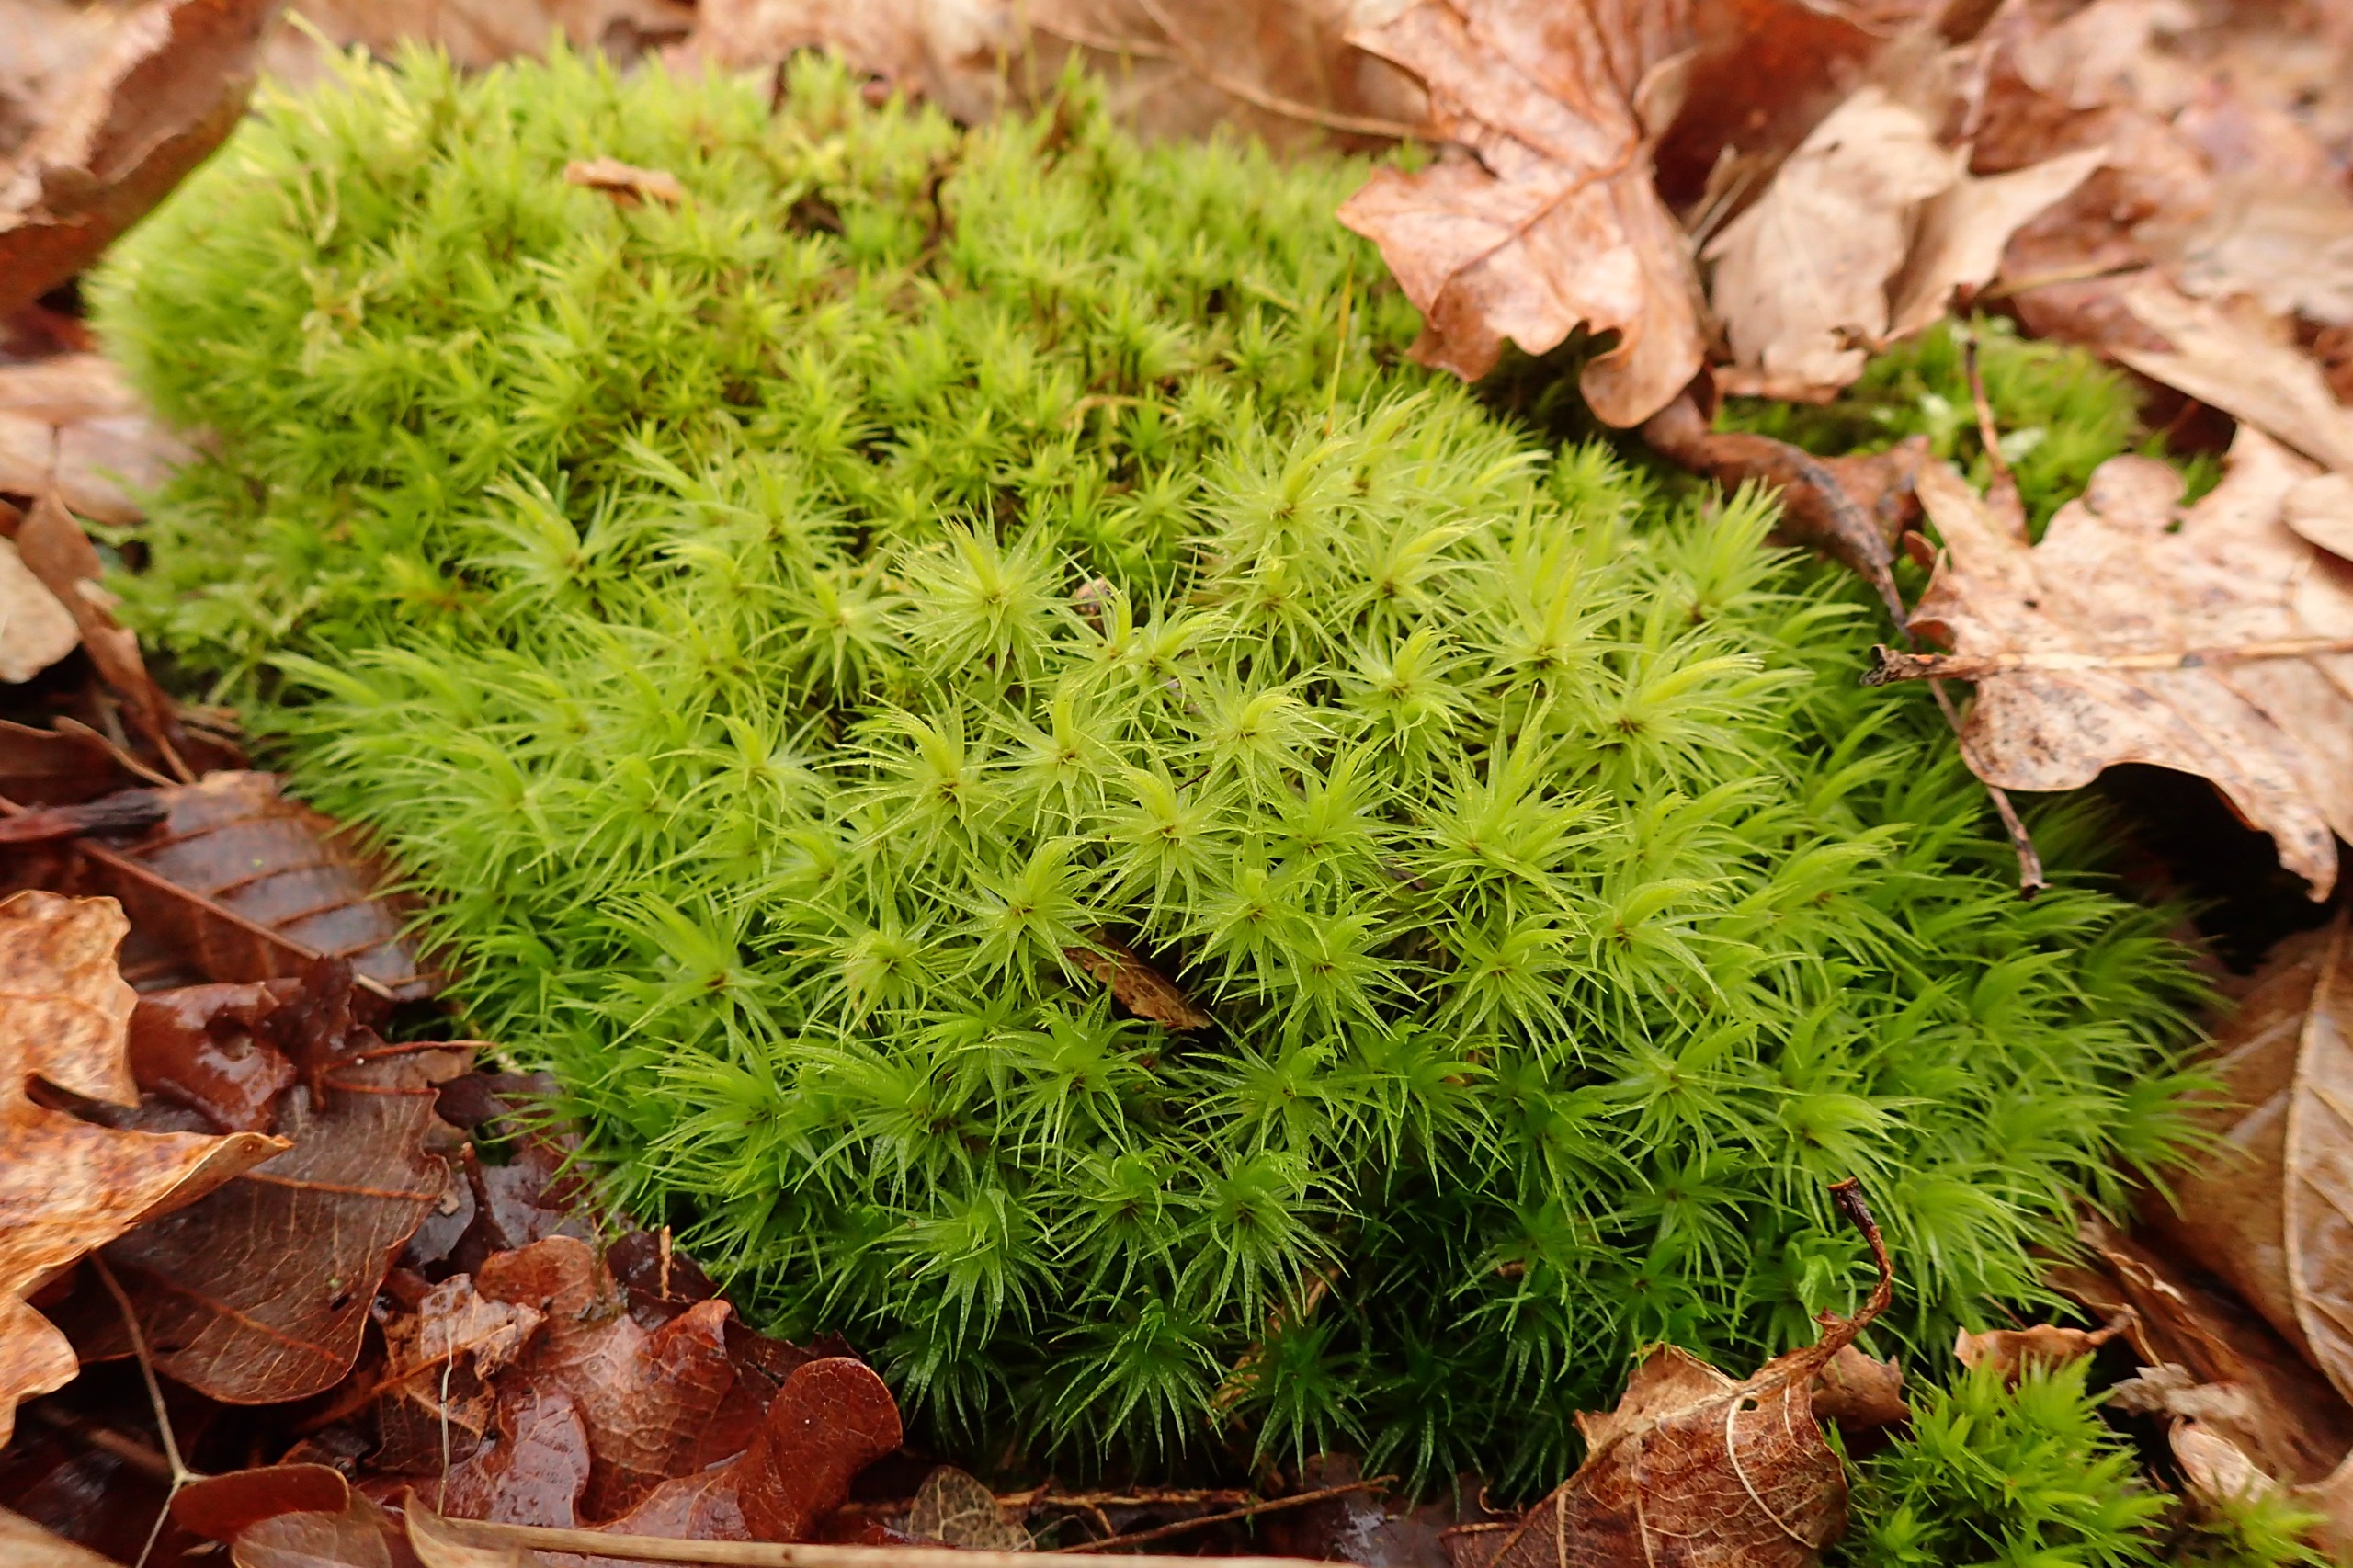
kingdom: Plantae
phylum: Bryophyta
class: Bryopsida
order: Dicranales
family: Dicranaceae
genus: Dicranum
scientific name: Dicranum polysetum
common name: Bølgebladet kløvtand
